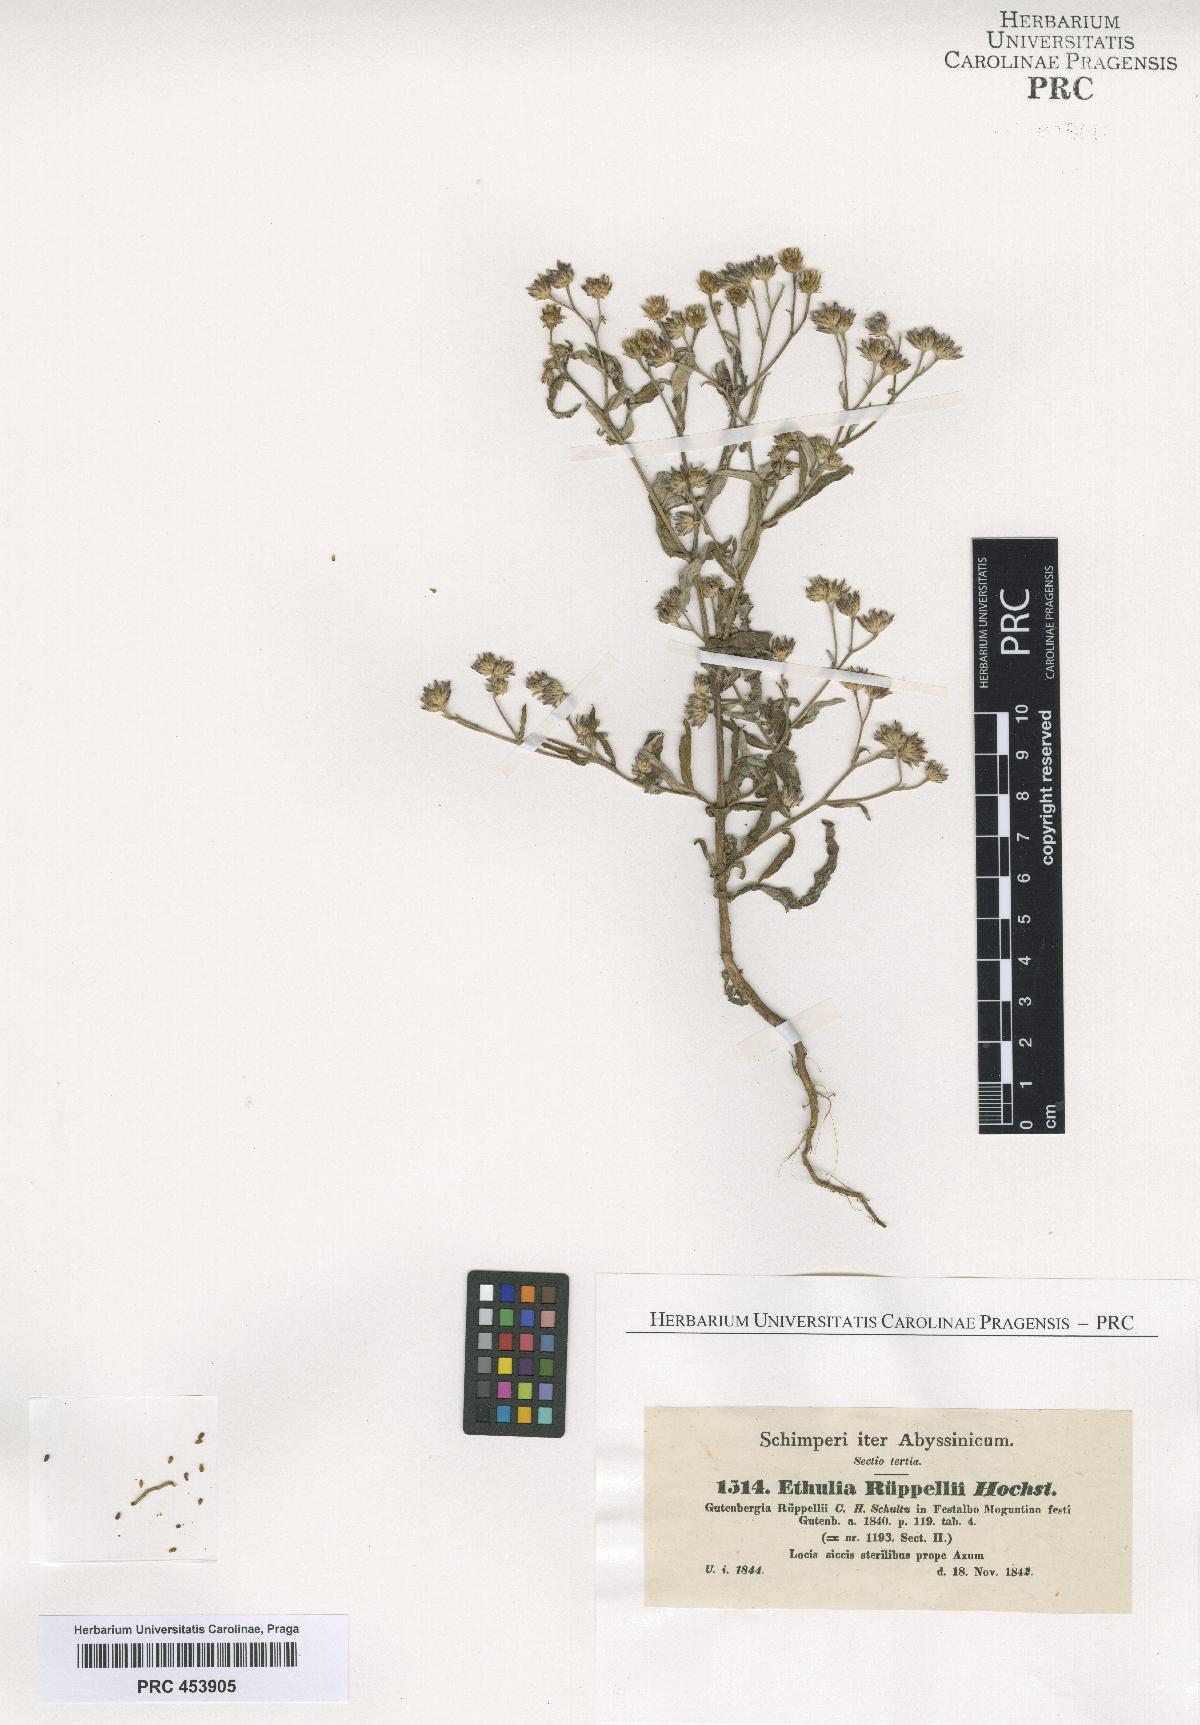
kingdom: Plantae
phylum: Tracheophyta
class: Magnoliopsida
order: Asterales
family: Asteraceae
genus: Gutenbergia
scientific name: Gutenbergia rueppellii
